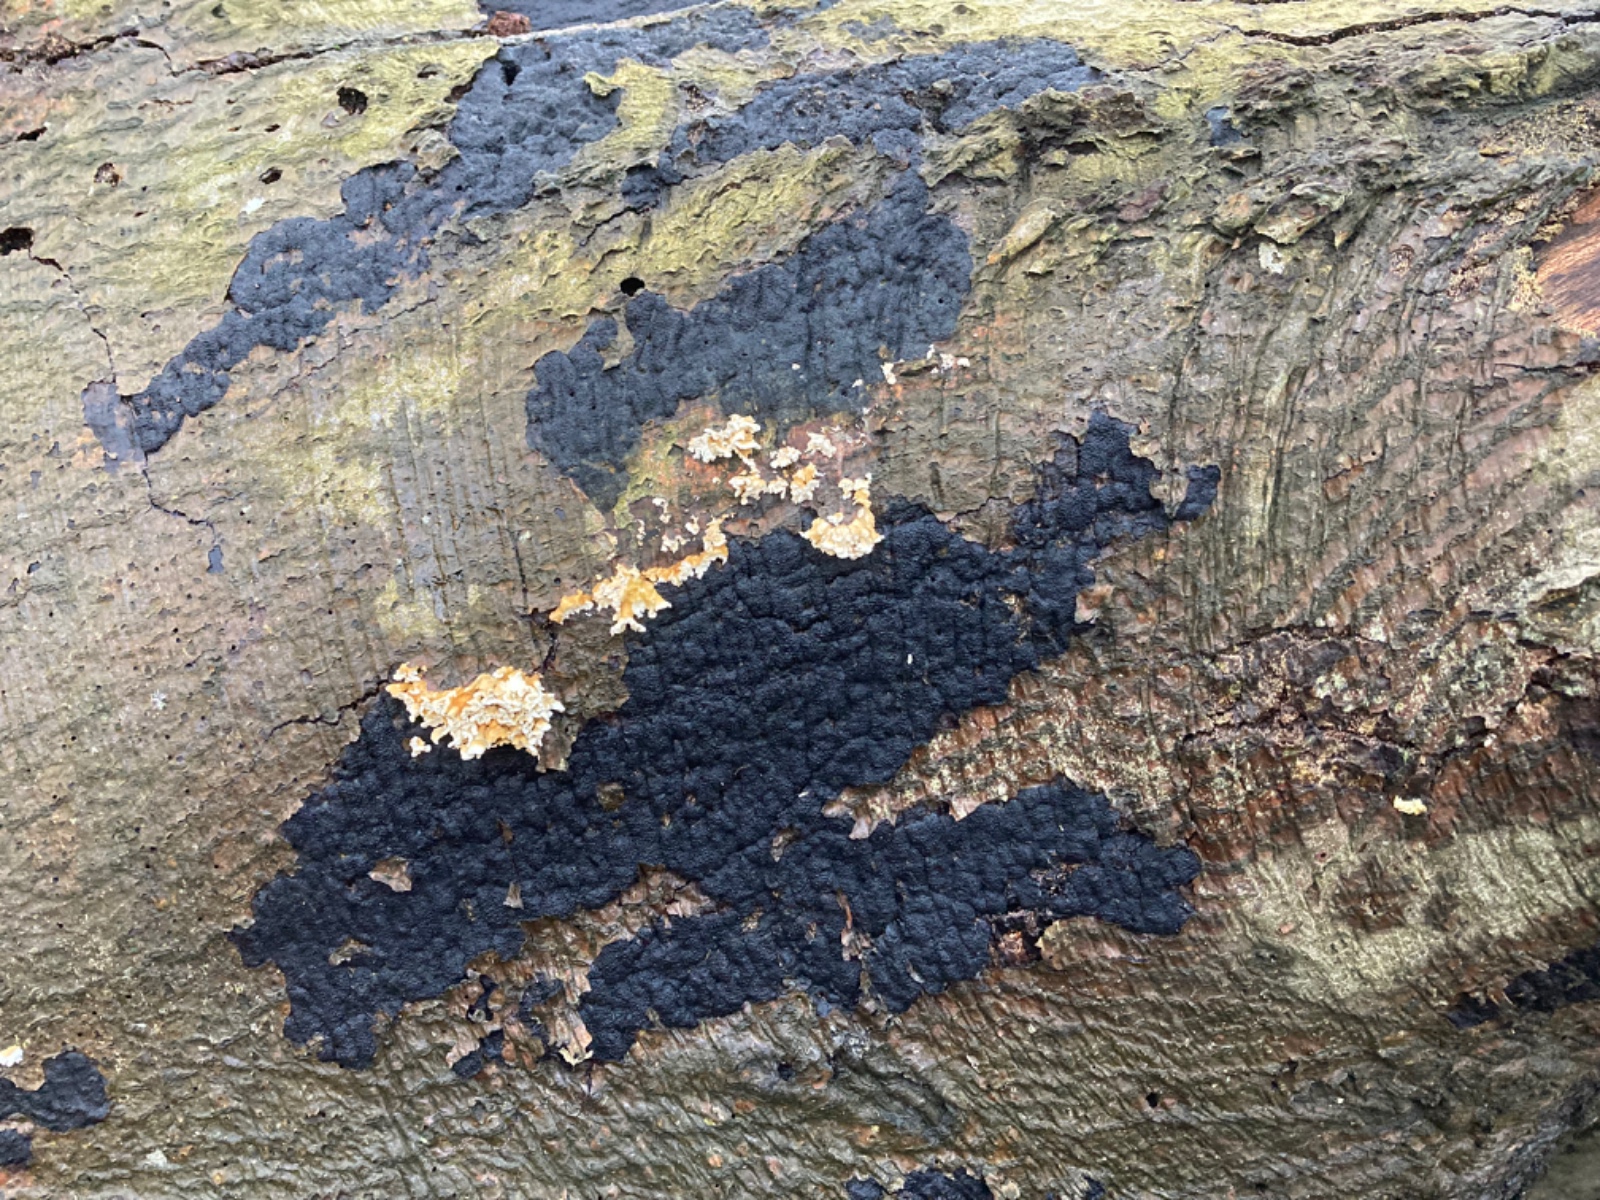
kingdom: Fungi
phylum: Ascomycota
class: Sordariomycetes
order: Xylariales
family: Diatrypaceae
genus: Eutypa
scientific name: Eutypa spinosa
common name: grov kulskorpe
